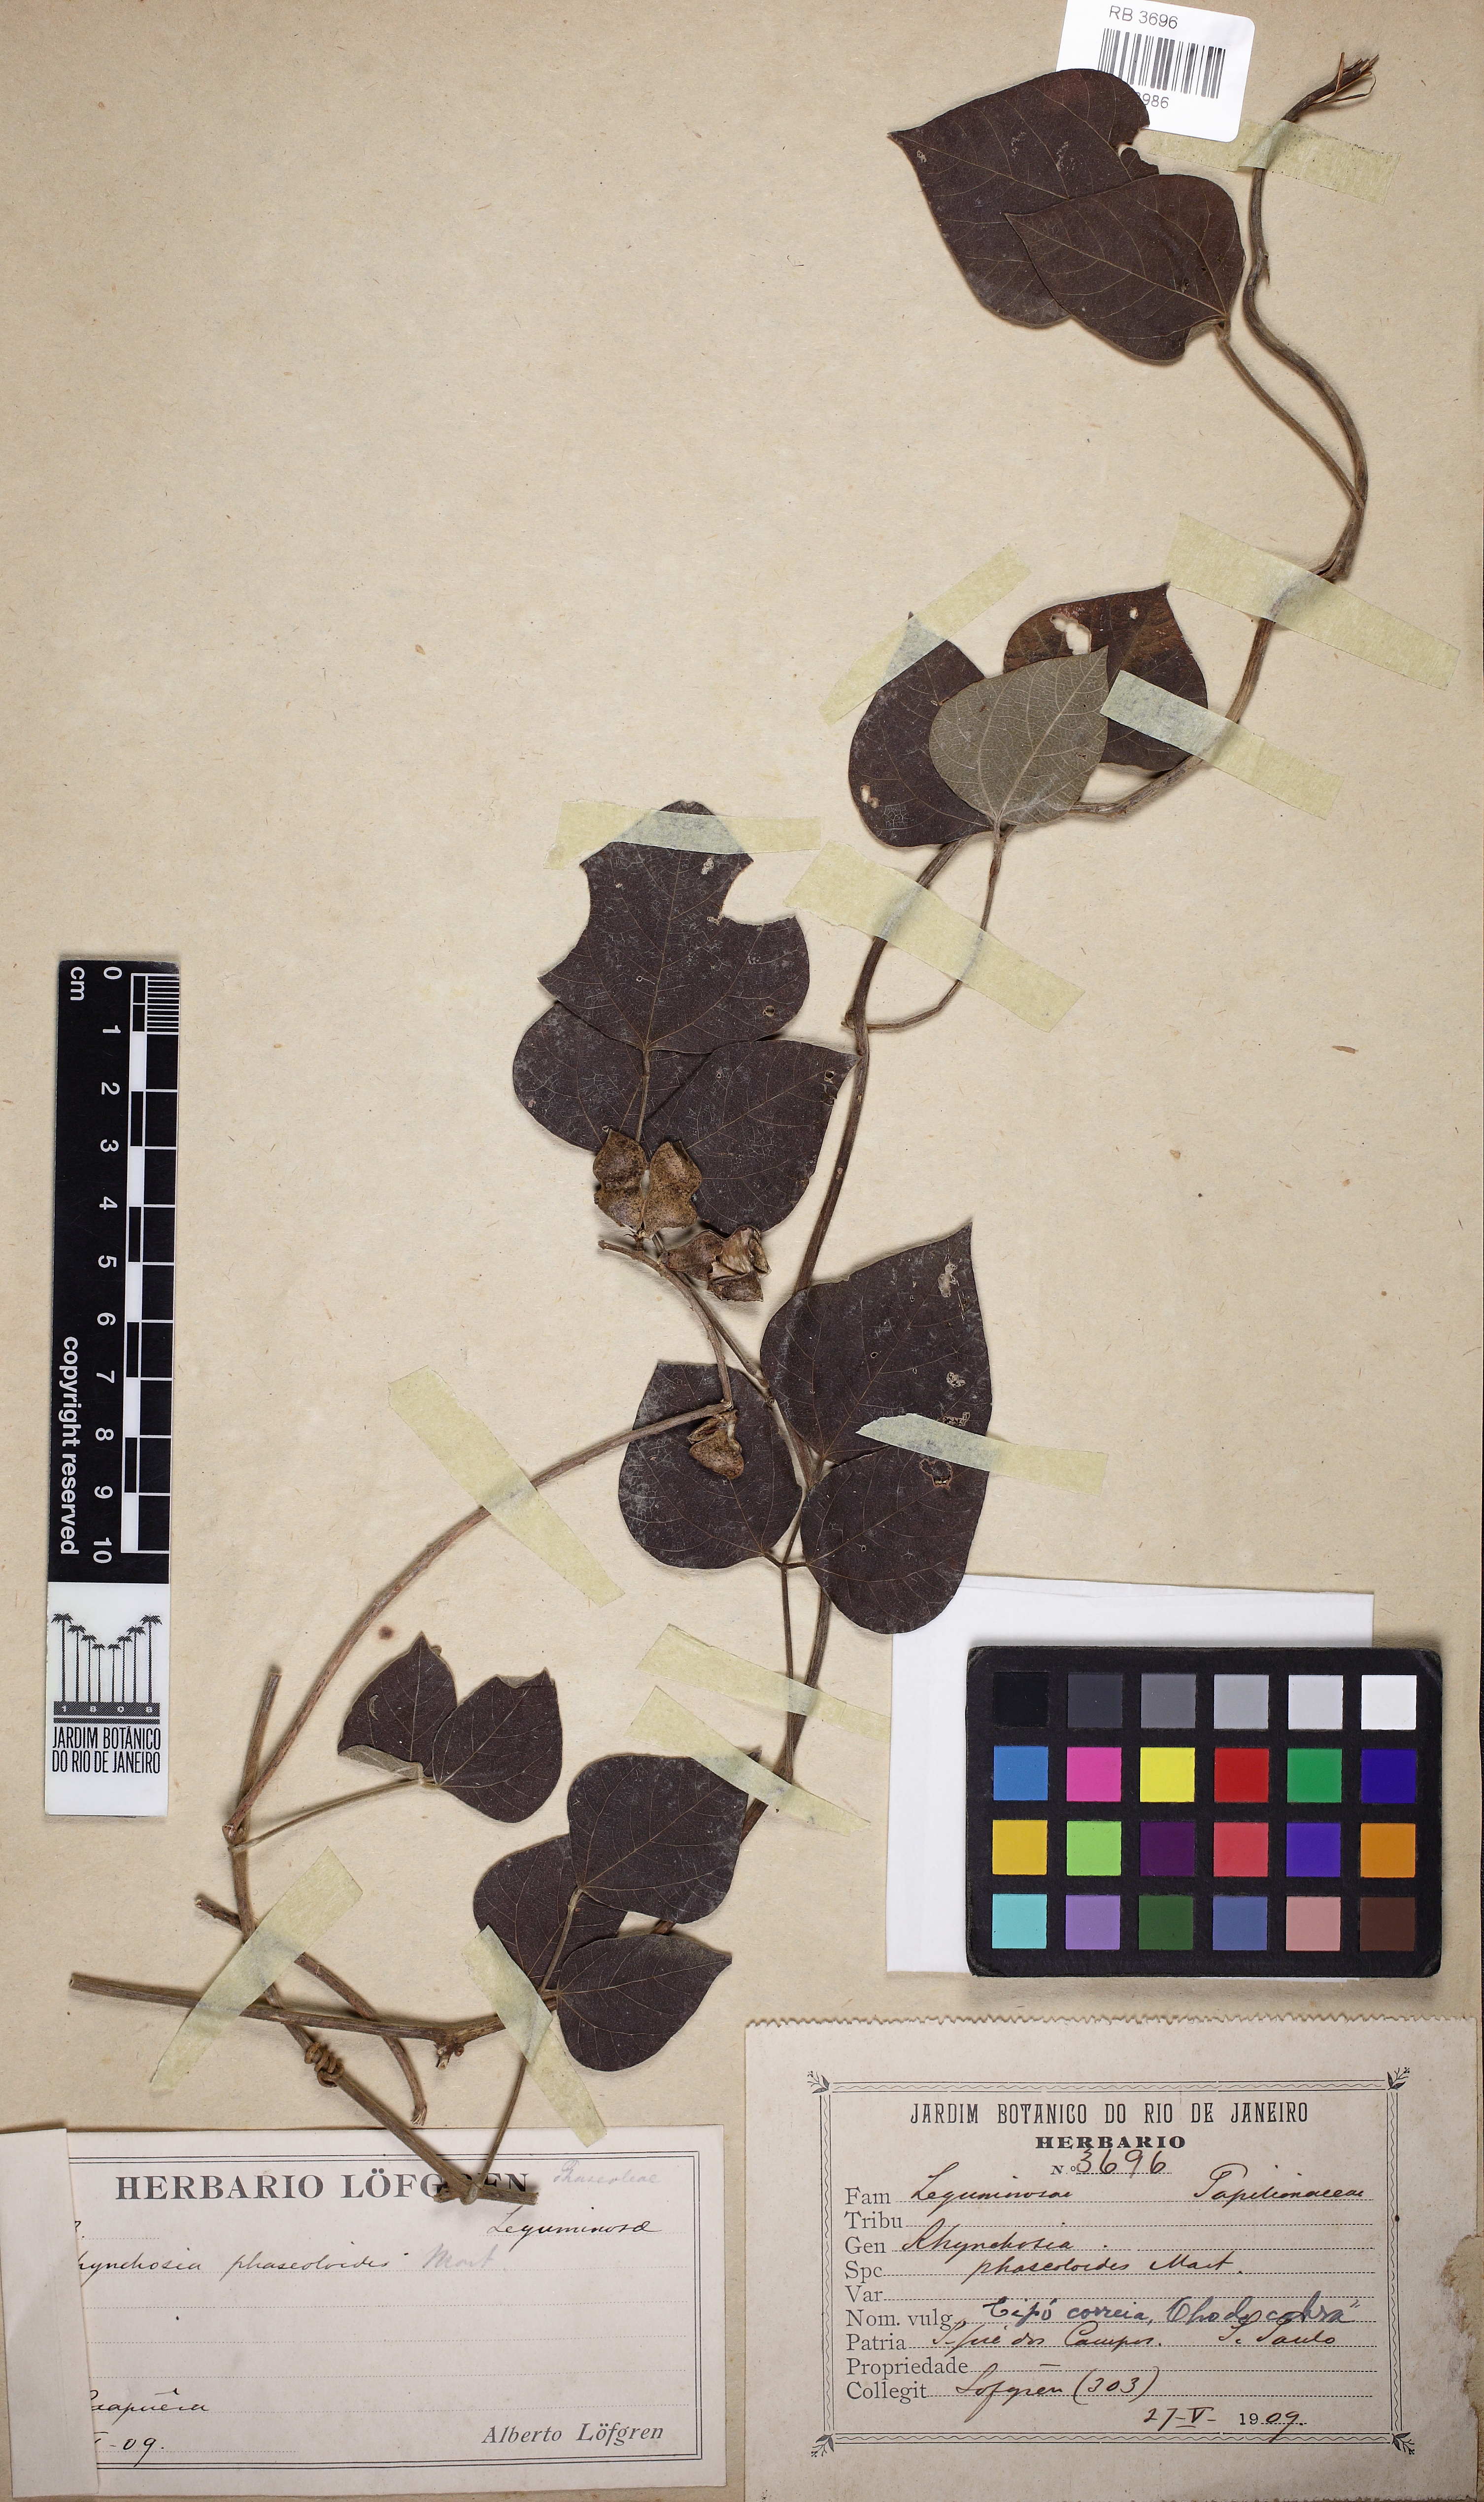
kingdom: Plantae
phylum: Tracheophyta
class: Magnoliopsida
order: Fabales
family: Fabaceae
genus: Rhynchosia
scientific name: Rhynchosia phaseoloides
